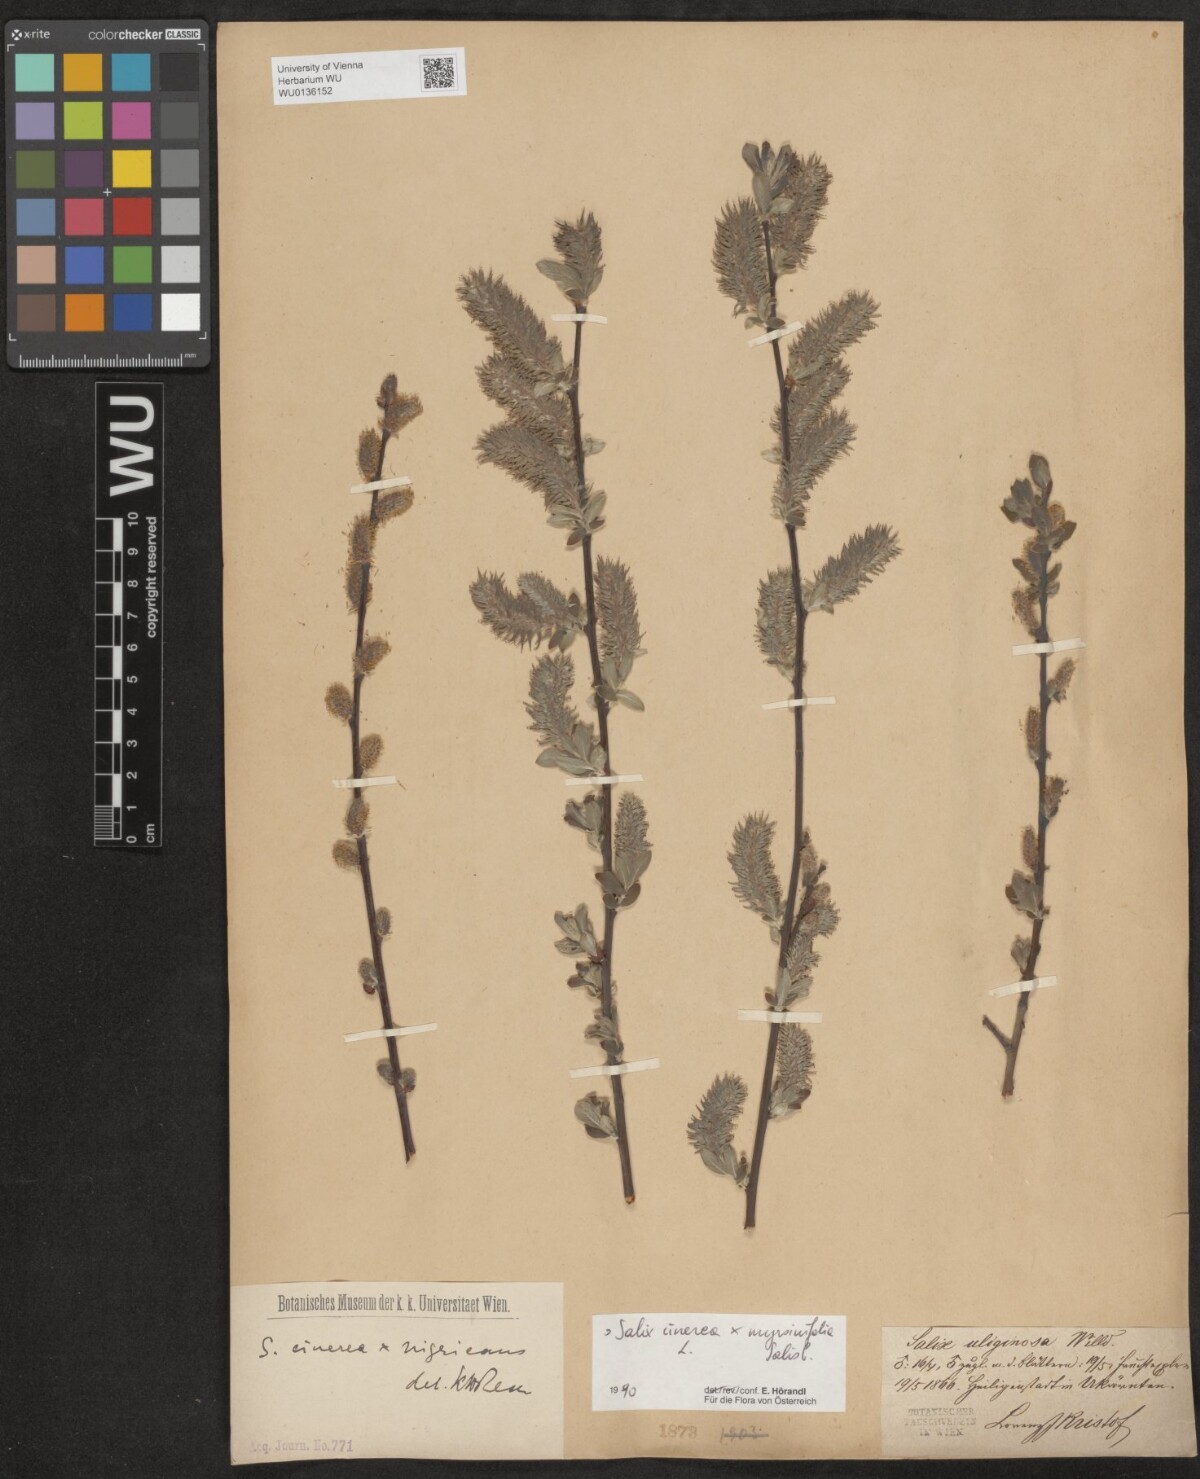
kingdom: Plantae
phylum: Tracheophyta
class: Magnoliopsida
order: Malpighiales
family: Salicaceae
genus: Salix
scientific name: Salix
